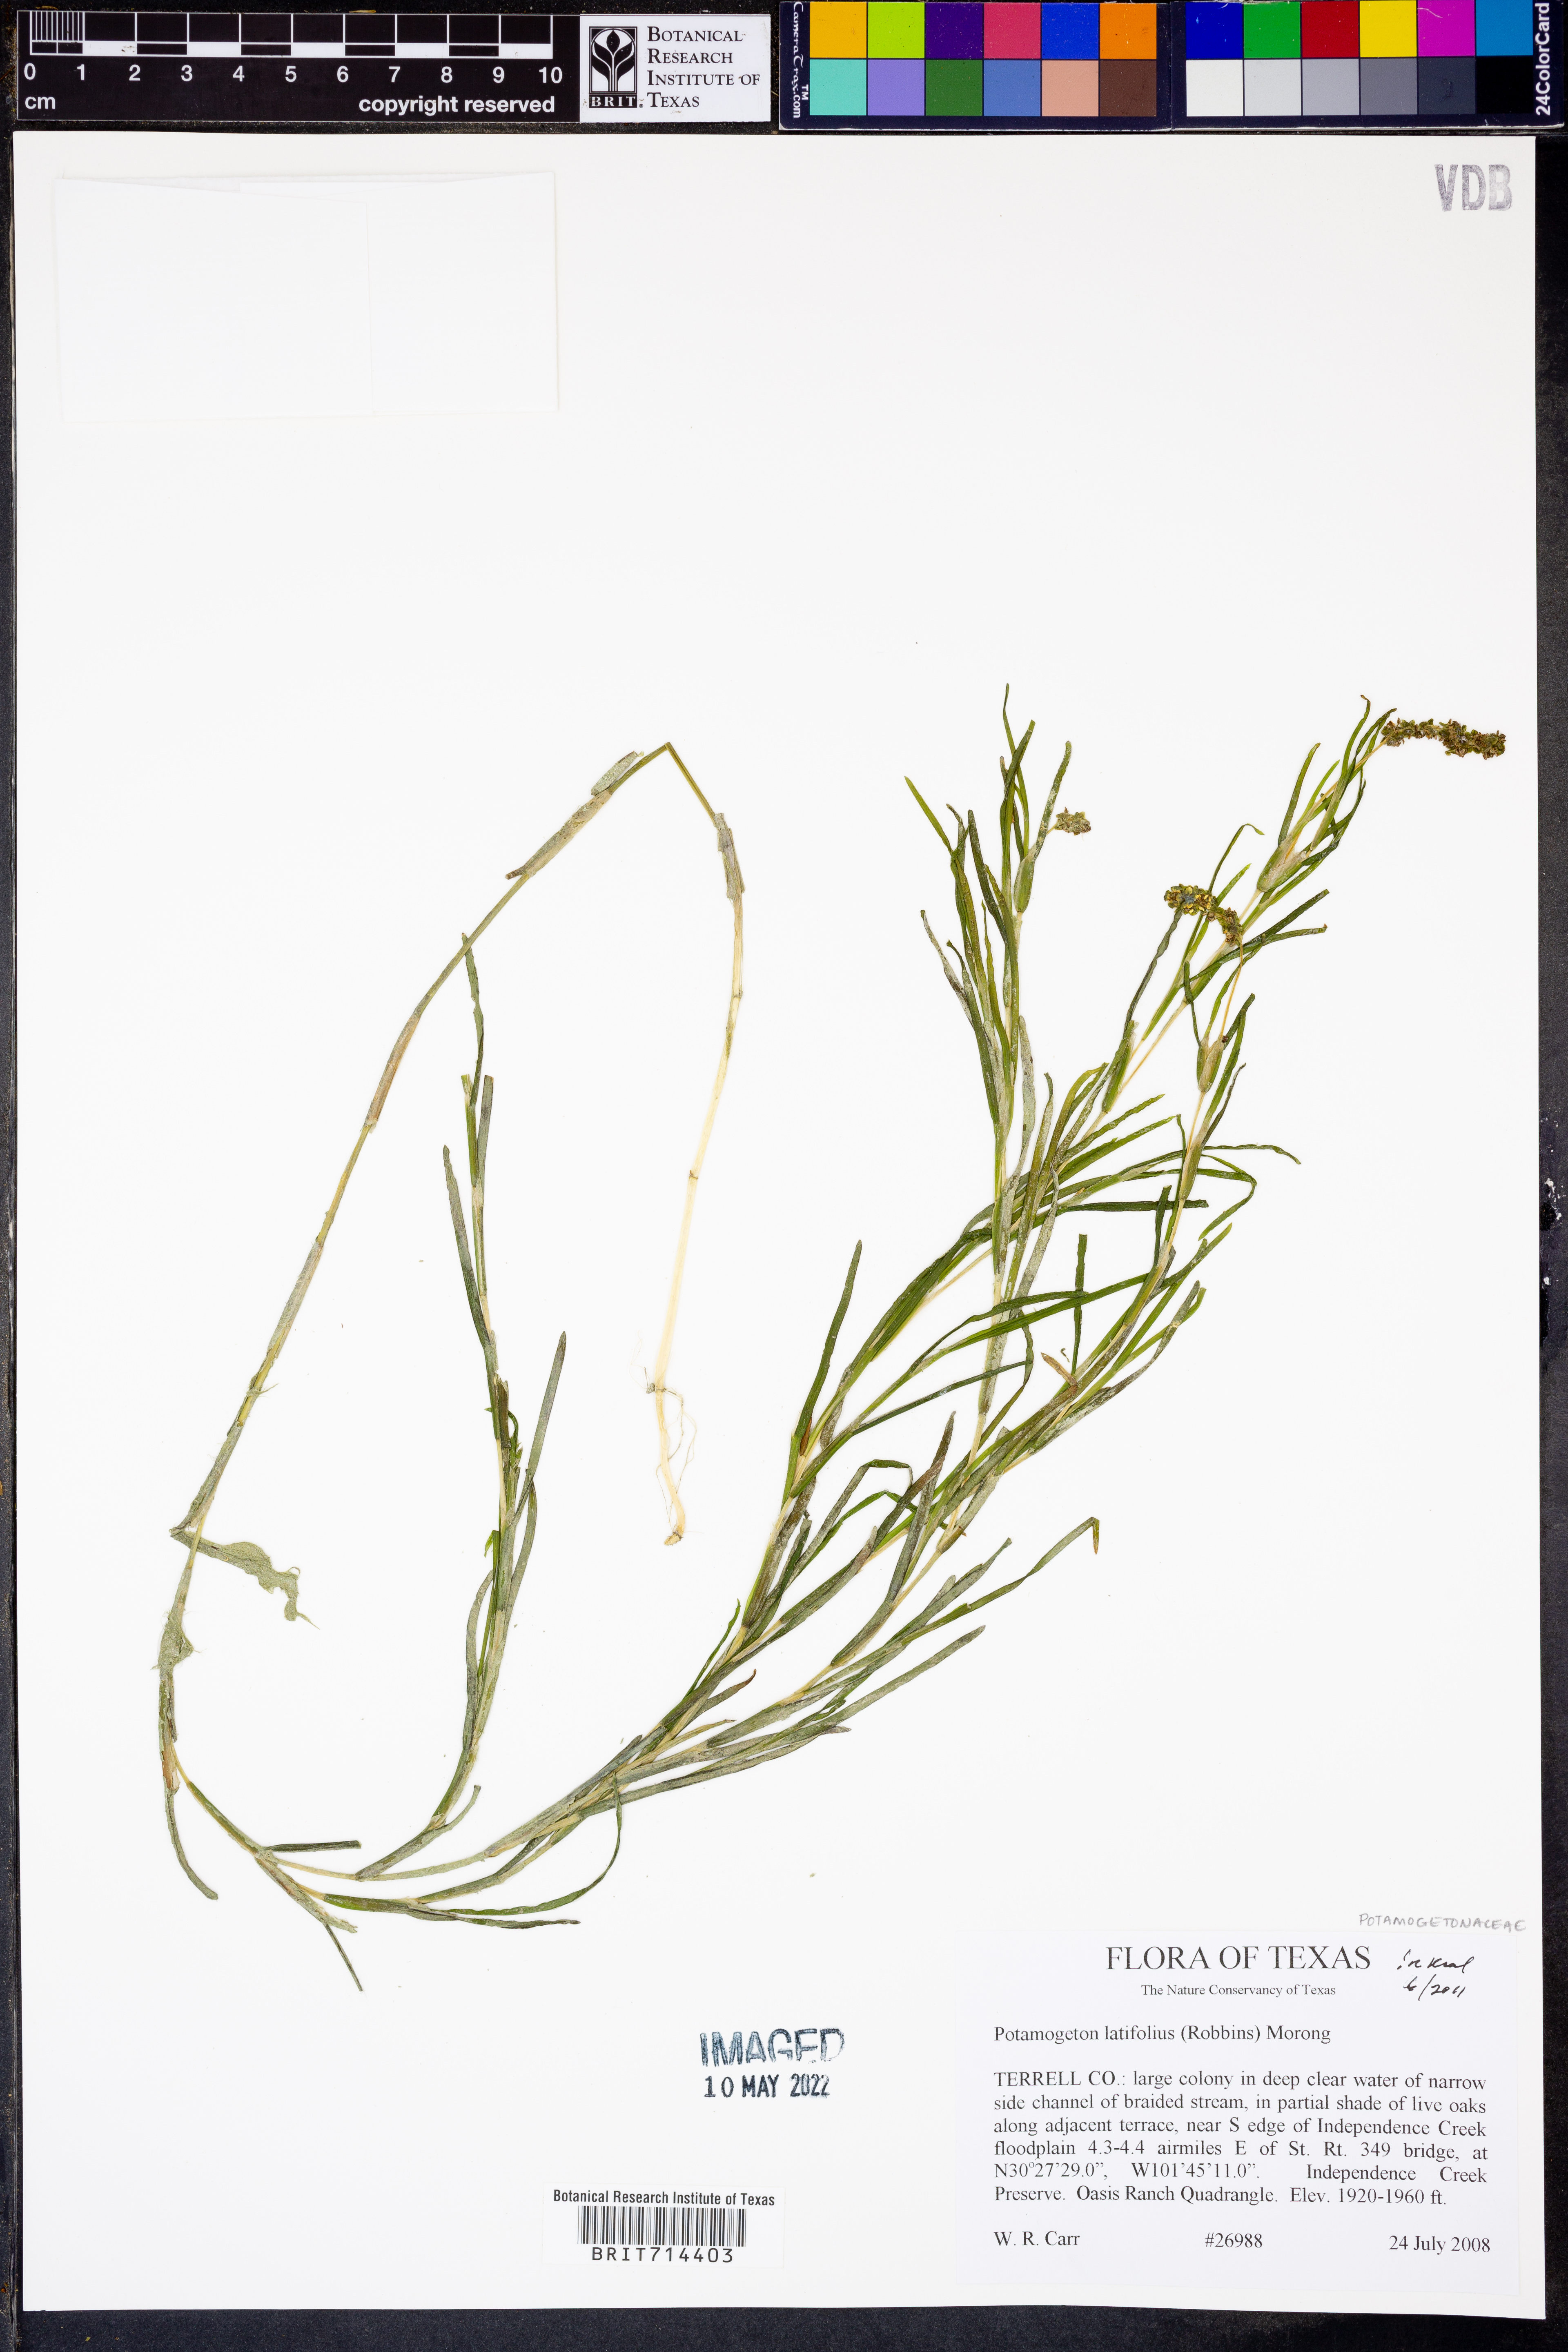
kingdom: Plantae
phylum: Tracheophyta
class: Liliopsida
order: Alismatales
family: Potamogetonaceae
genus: Stuckenia
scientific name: Stuckenia striata
